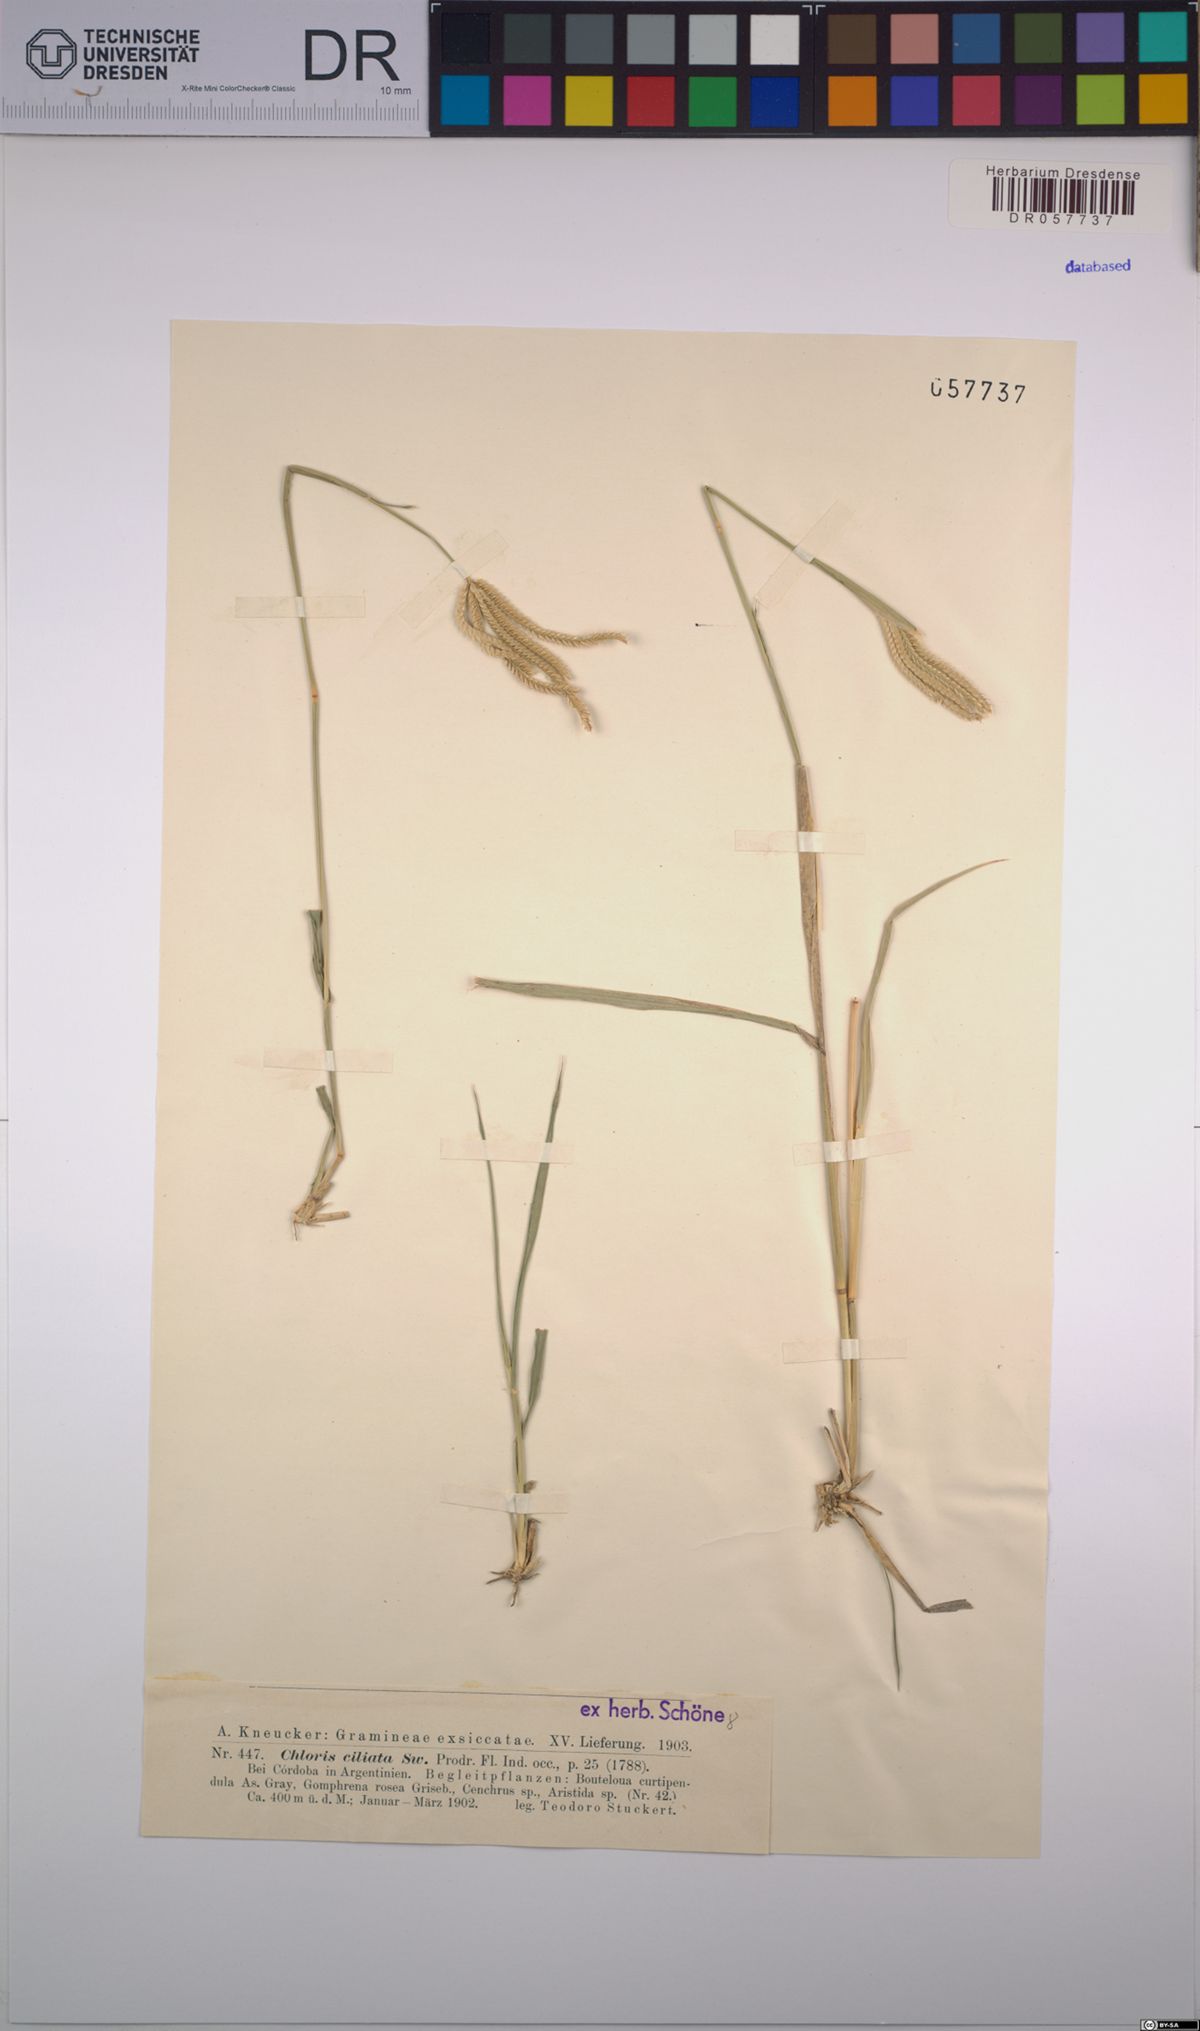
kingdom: Plantae
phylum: Tracheophyta
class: Liliopsida
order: Poales
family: Poaceae
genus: Stapfochloa
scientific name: Stapfochloa ciliata
